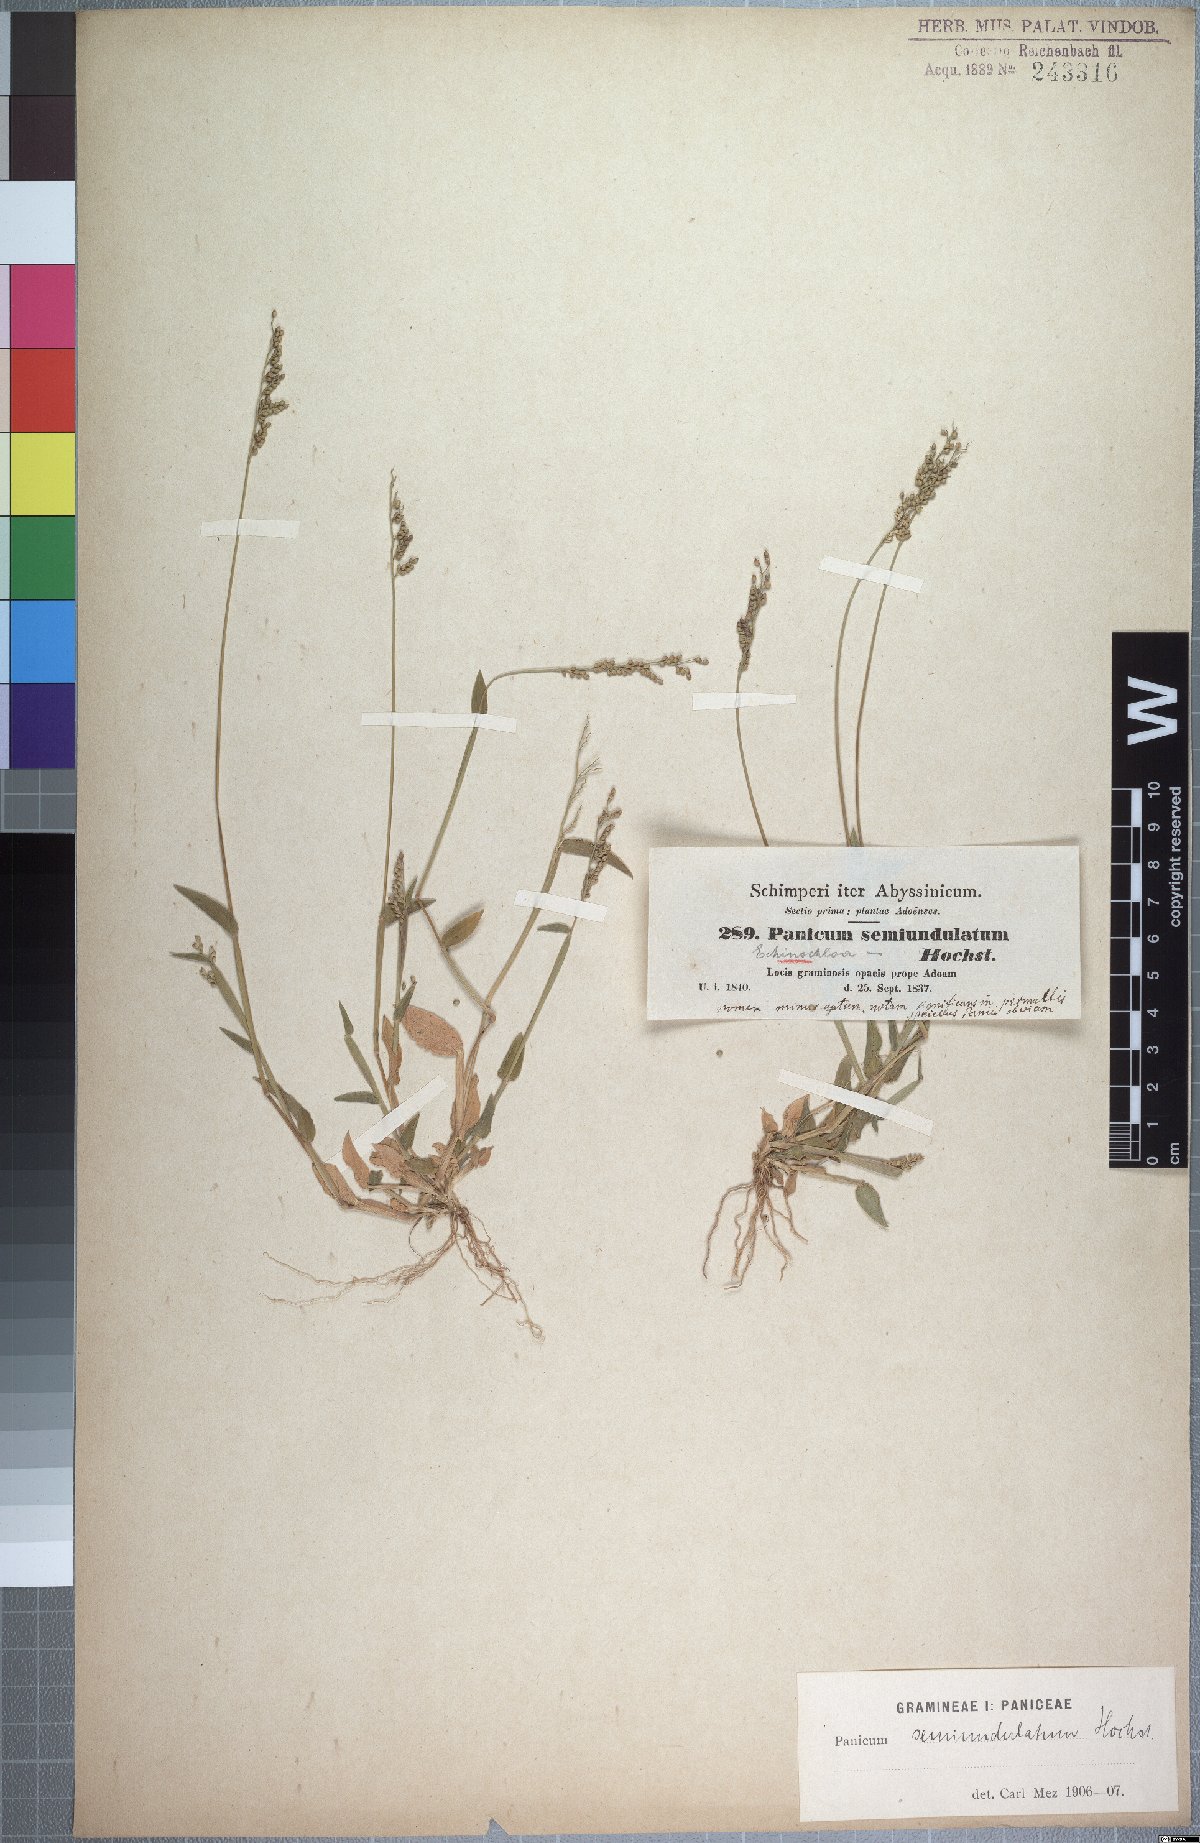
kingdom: Plantae
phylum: Tracheophyta
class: Liliopsida
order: Poales
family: Poaceae
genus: Urochloa
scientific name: Urochloa semiundulata
